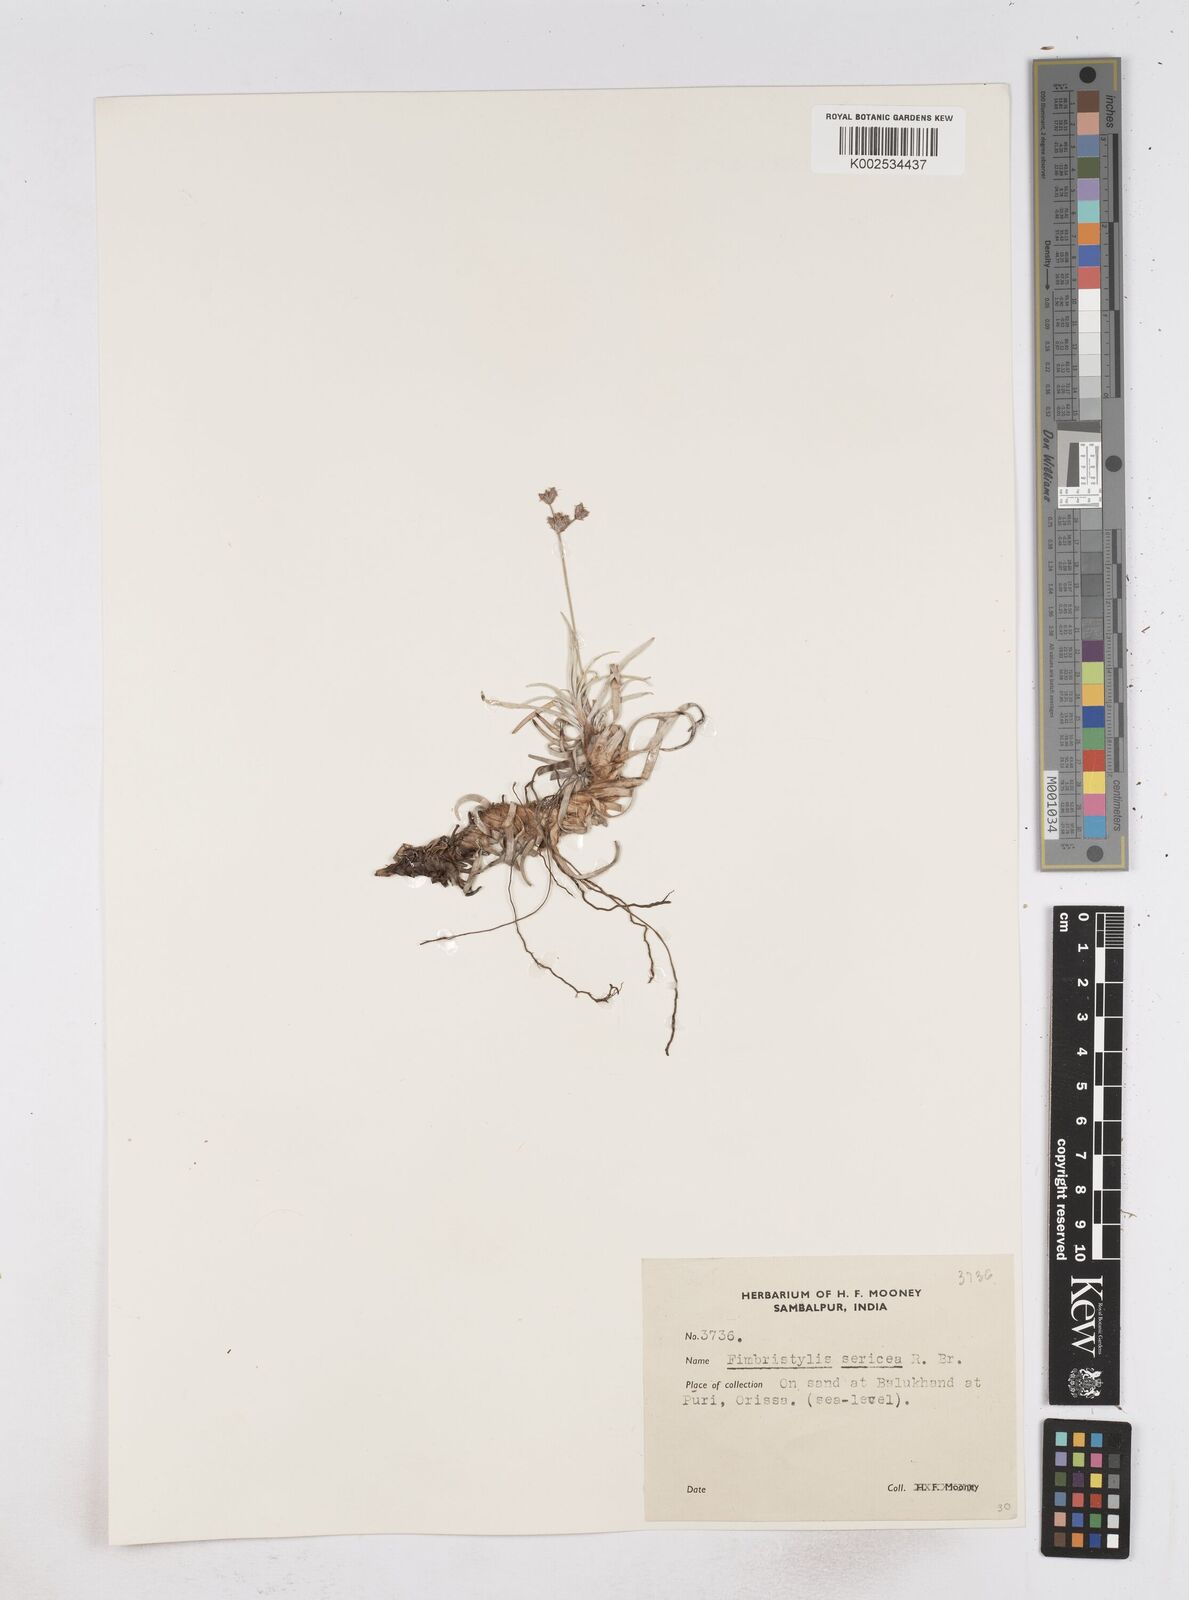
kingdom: Plantae
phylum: Tracheophyta
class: Liliopsida
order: Poales
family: Cyperaceae
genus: Fimbristylis
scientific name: Fimbristylis sericea
